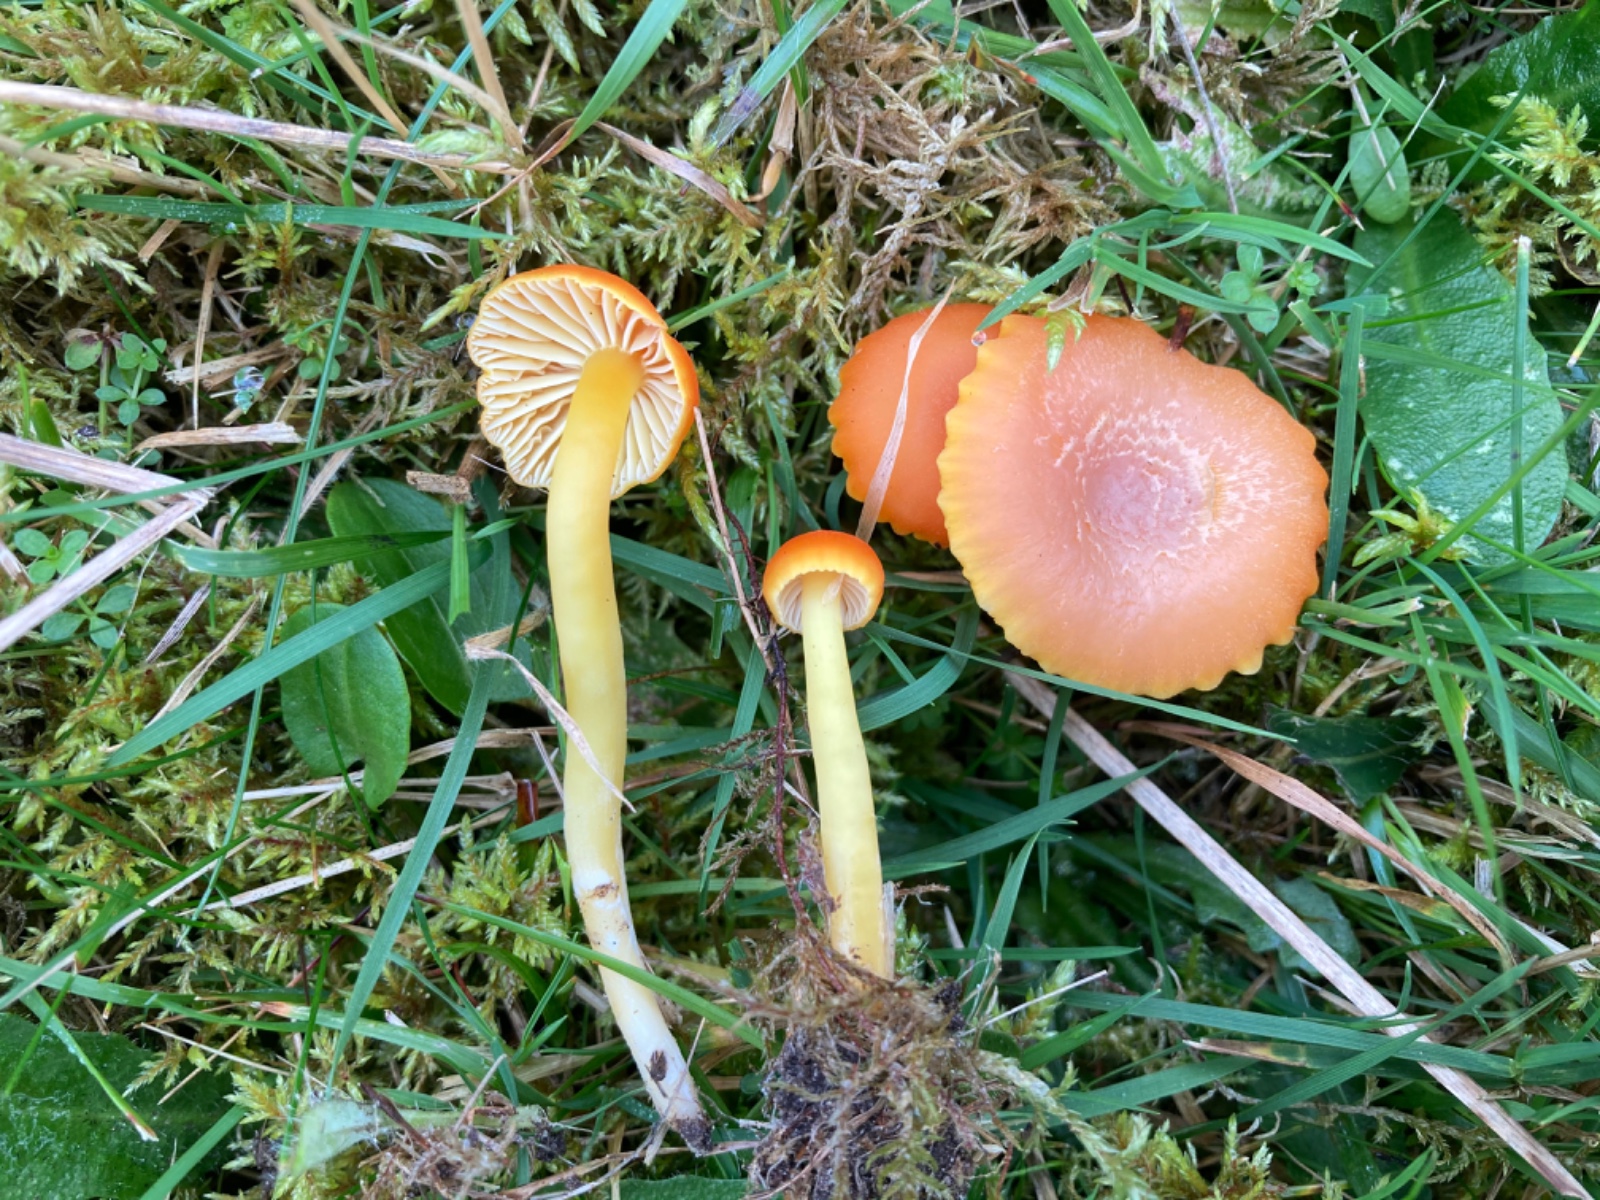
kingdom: Fungi
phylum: Basidiomycota
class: Agaricomycetes
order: Agaricales
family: Hygrophoraceae
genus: Hygrocybe
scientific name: Hygrocybe reidii
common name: honning-vokshat
